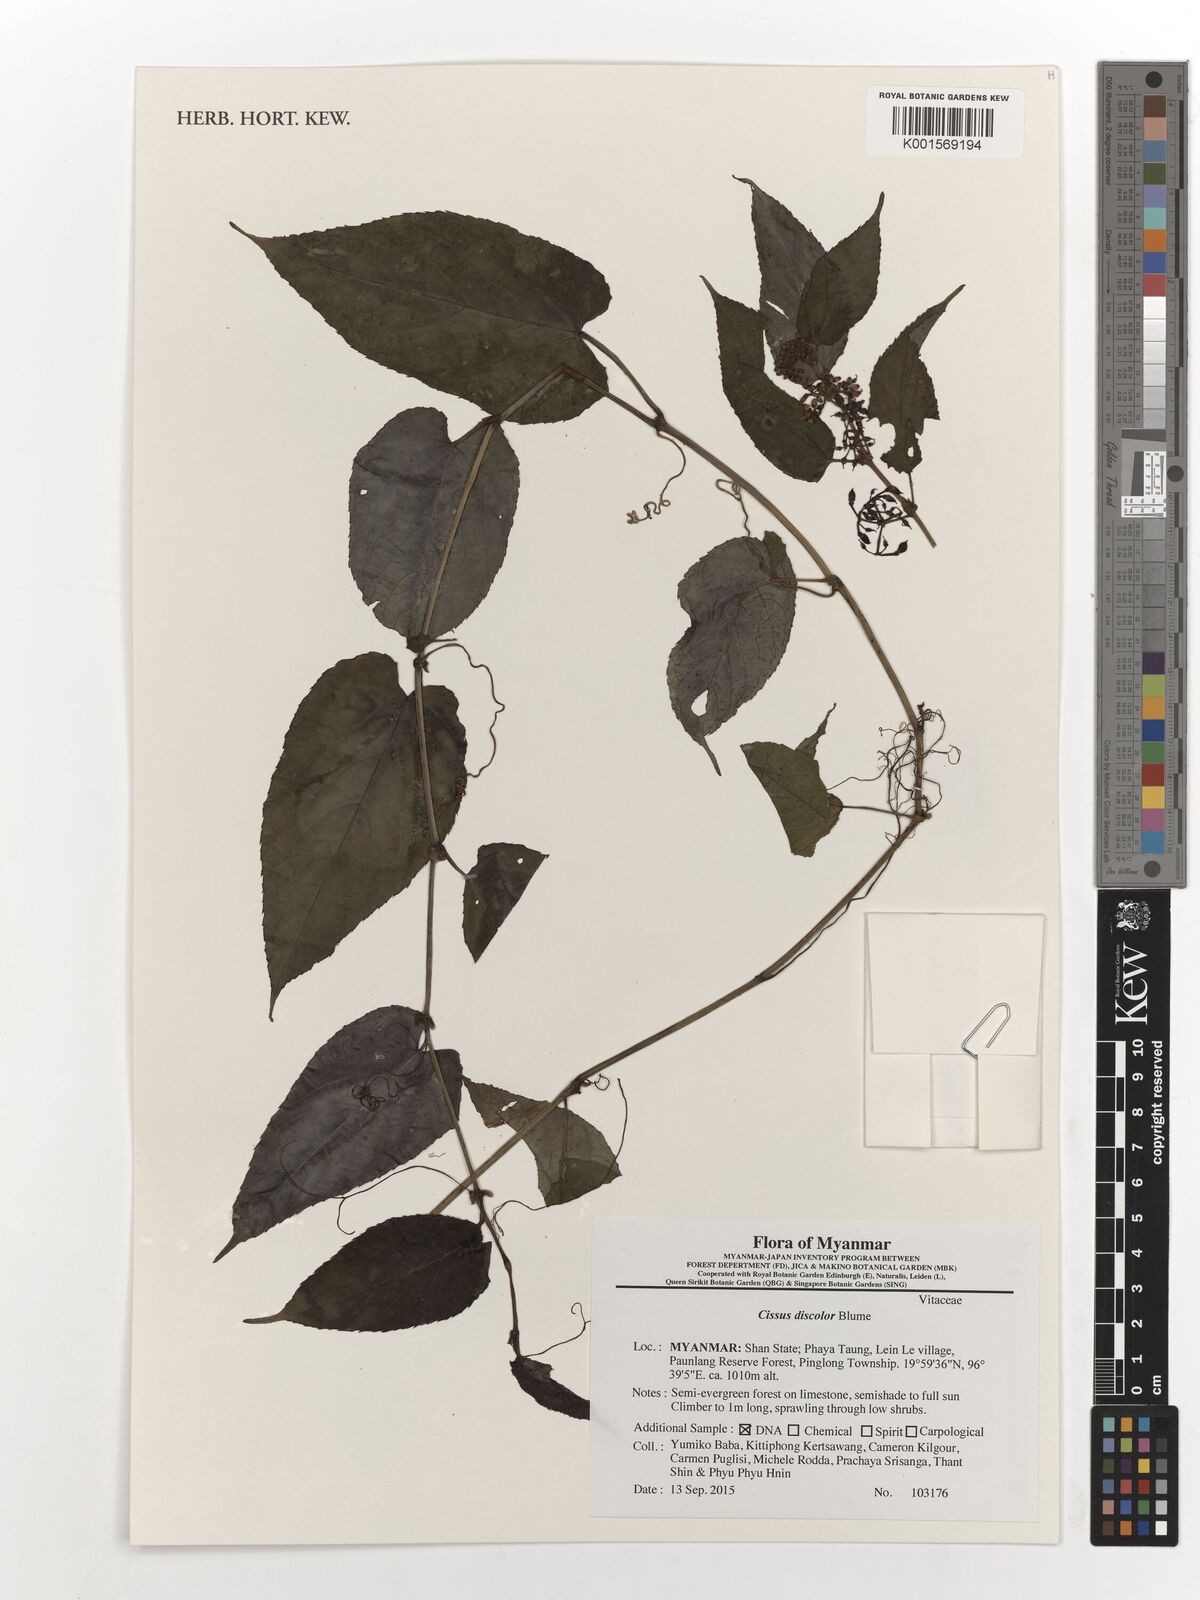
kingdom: Plantae
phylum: Tracheophyta
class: Magnoliopsida
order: Vitales
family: Vitaceae
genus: Cissus
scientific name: Cissus discolor
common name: Climbing-begonia
